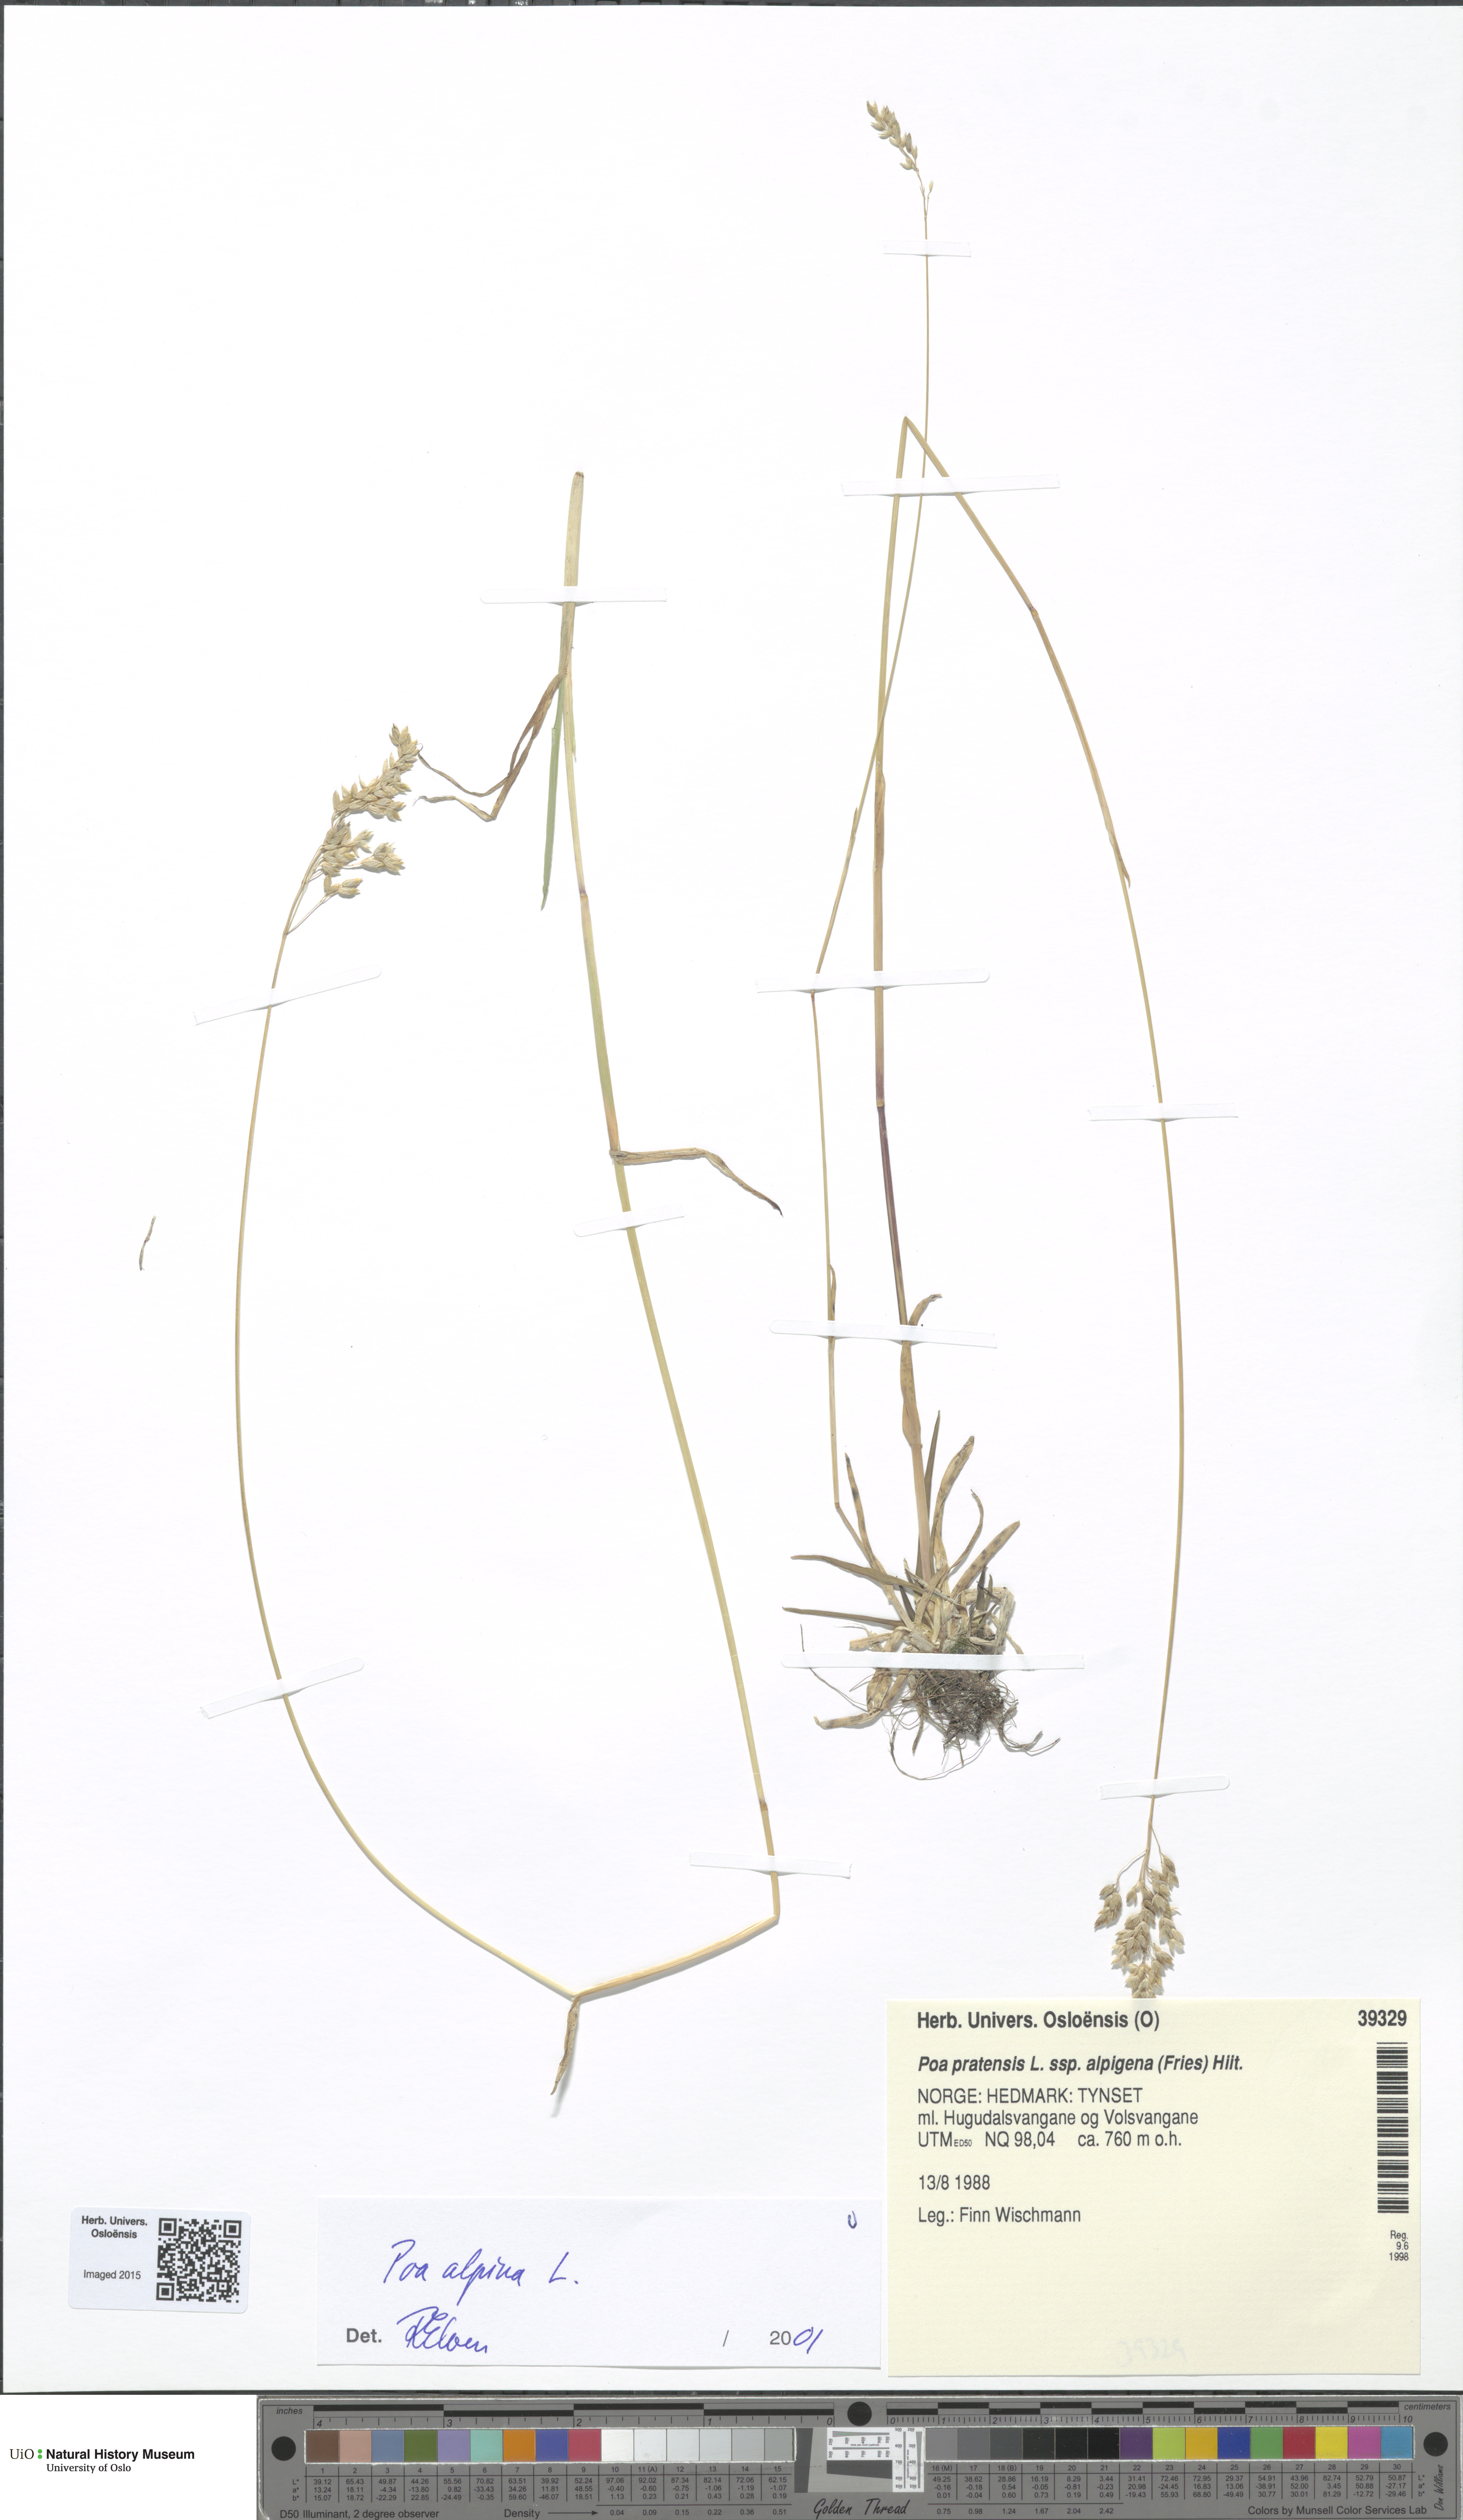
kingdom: Plantae
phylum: Tracheophyta
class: Liliopsida
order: Poales
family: Poaceae
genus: Poa
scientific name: Poa alpina
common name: Alpine bluegrass
